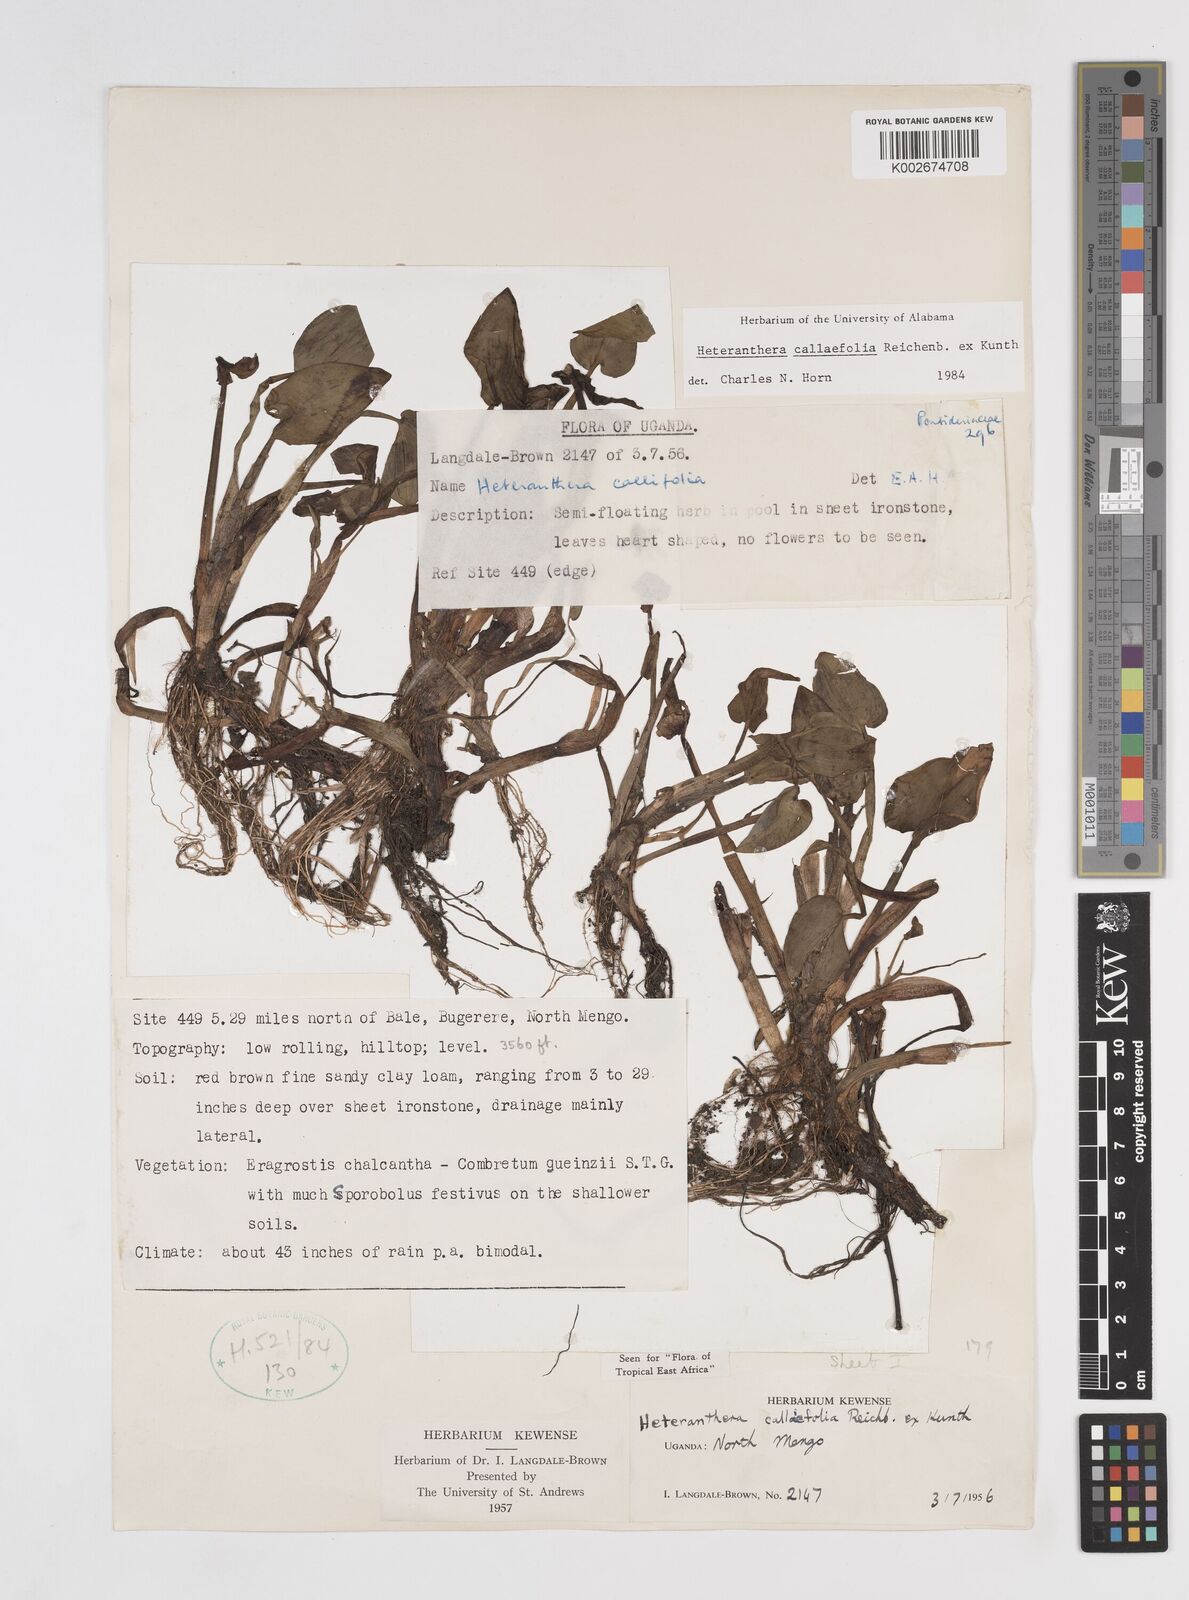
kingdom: Plantae
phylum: Tracheophyta
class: Liliopsida
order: Commelinales
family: Pontederiaceae
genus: Heteranthera
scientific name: Heteranthera callifolia
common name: Mud plantain
